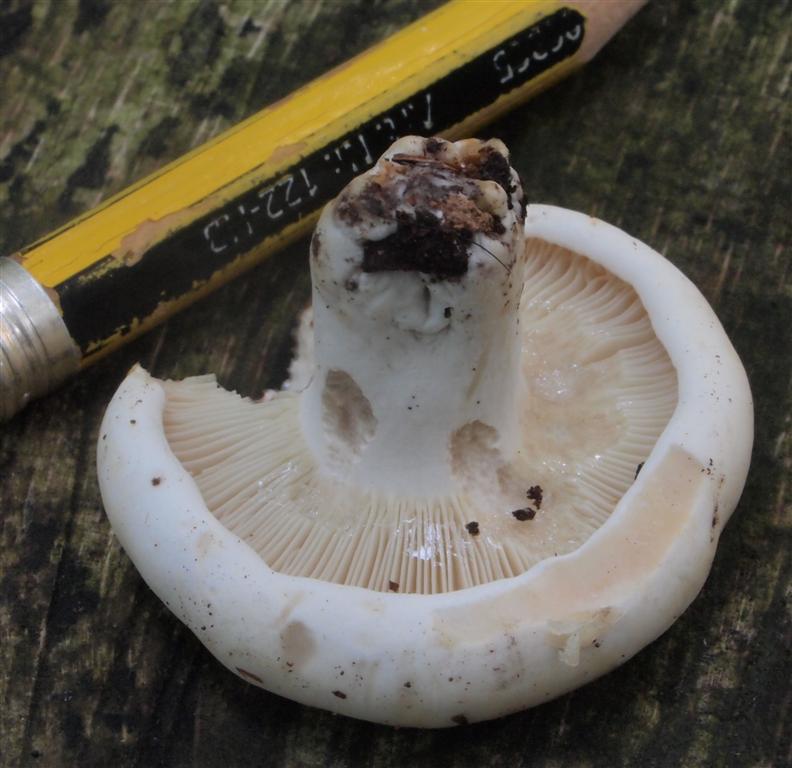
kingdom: Fungi
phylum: Basidiomycota
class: Agaricomycetes
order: Russulales
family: Russulaceae
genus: Russula
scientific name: Russula densifolia
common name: tætbladet skørhat
